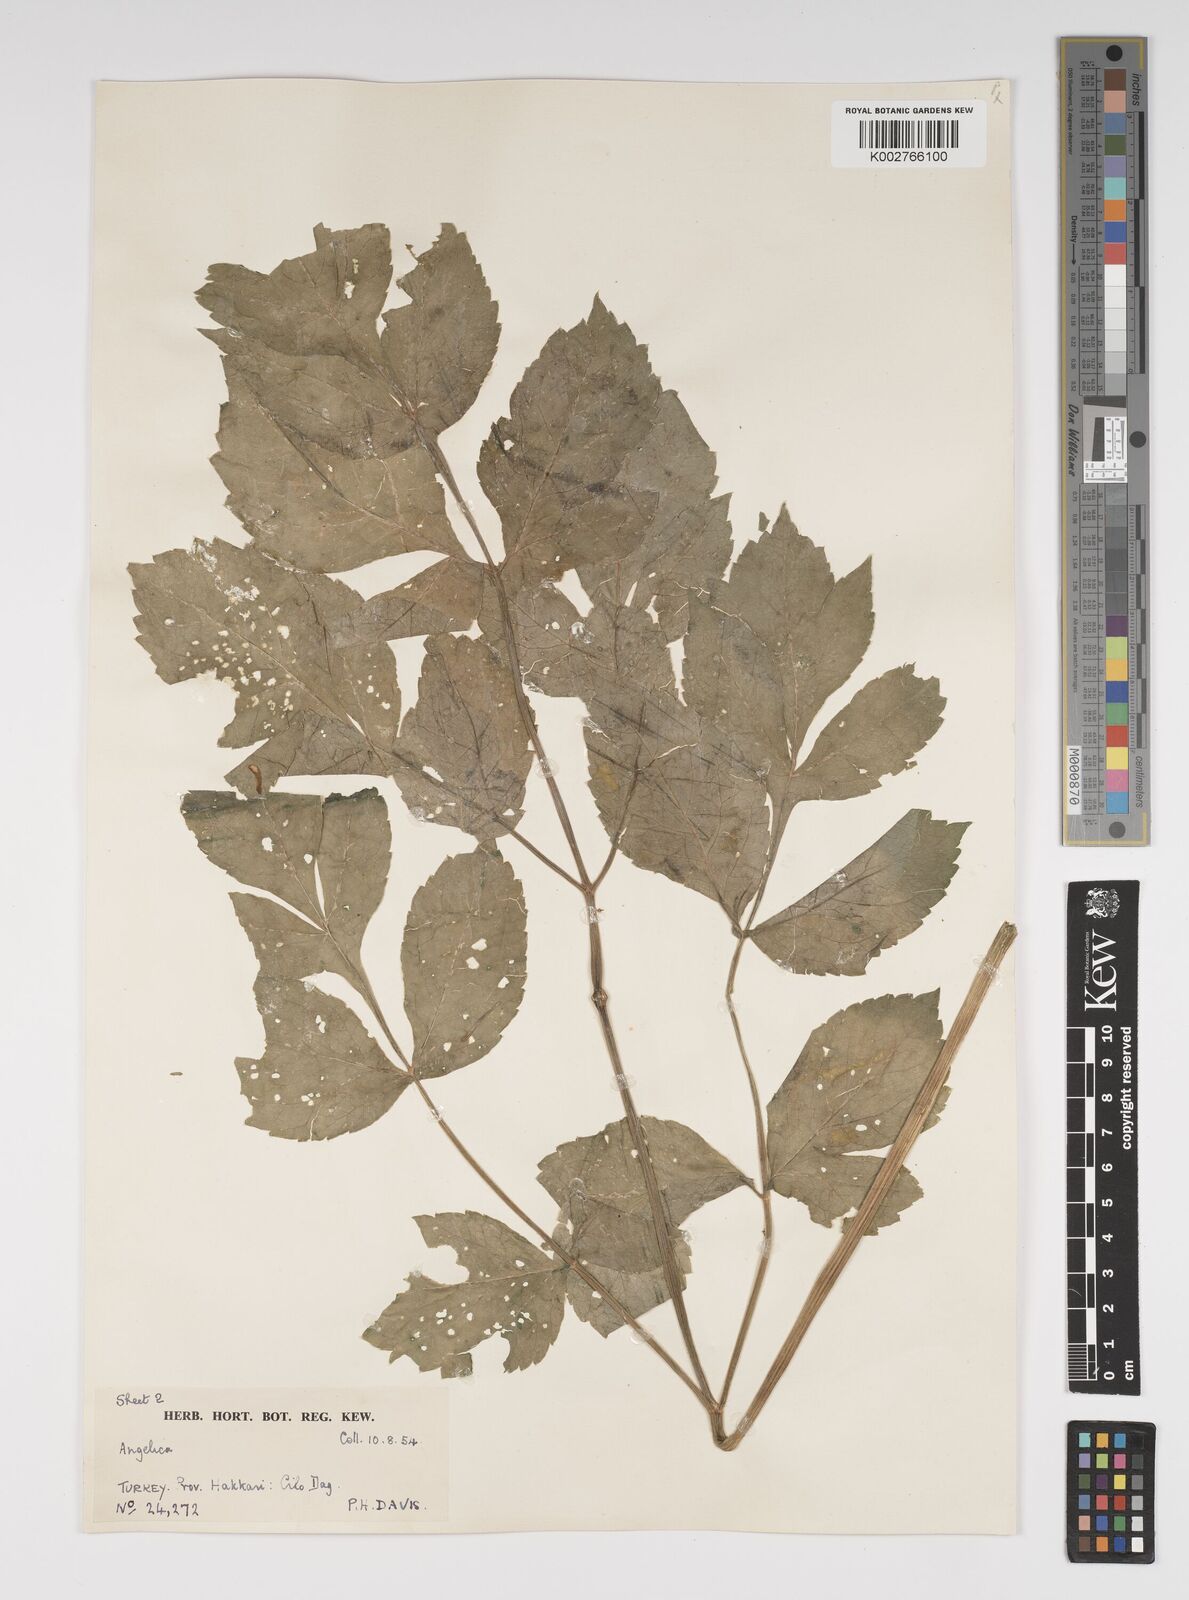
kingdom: Plantae
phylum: Tracheophyta
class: Magnoliopsida
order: Apiales
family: Apiaceae
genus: Xanthogalum
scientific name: Xanthogalum purpurascens
